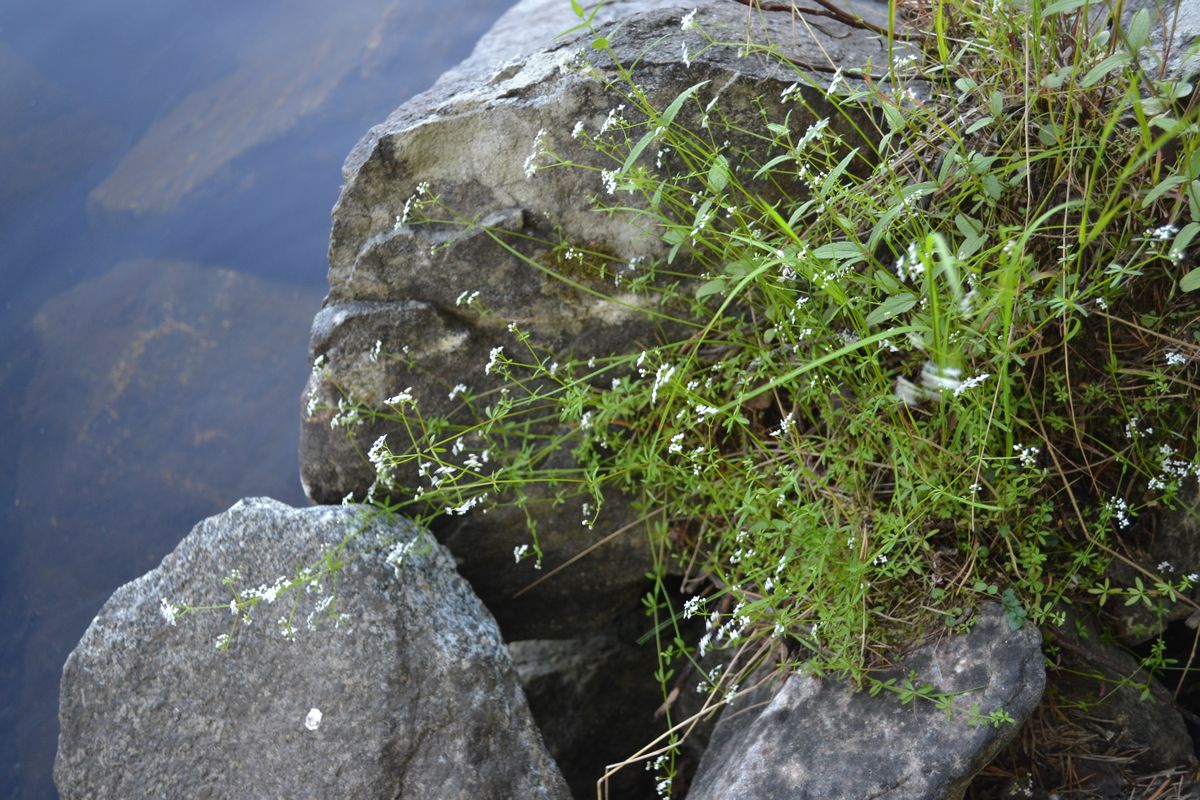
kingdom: Plantae
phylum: Tracheophyta
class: Magnoliopsida
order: Gentianales
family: Rubiaceae
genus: Galium
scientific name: Galium palustre
